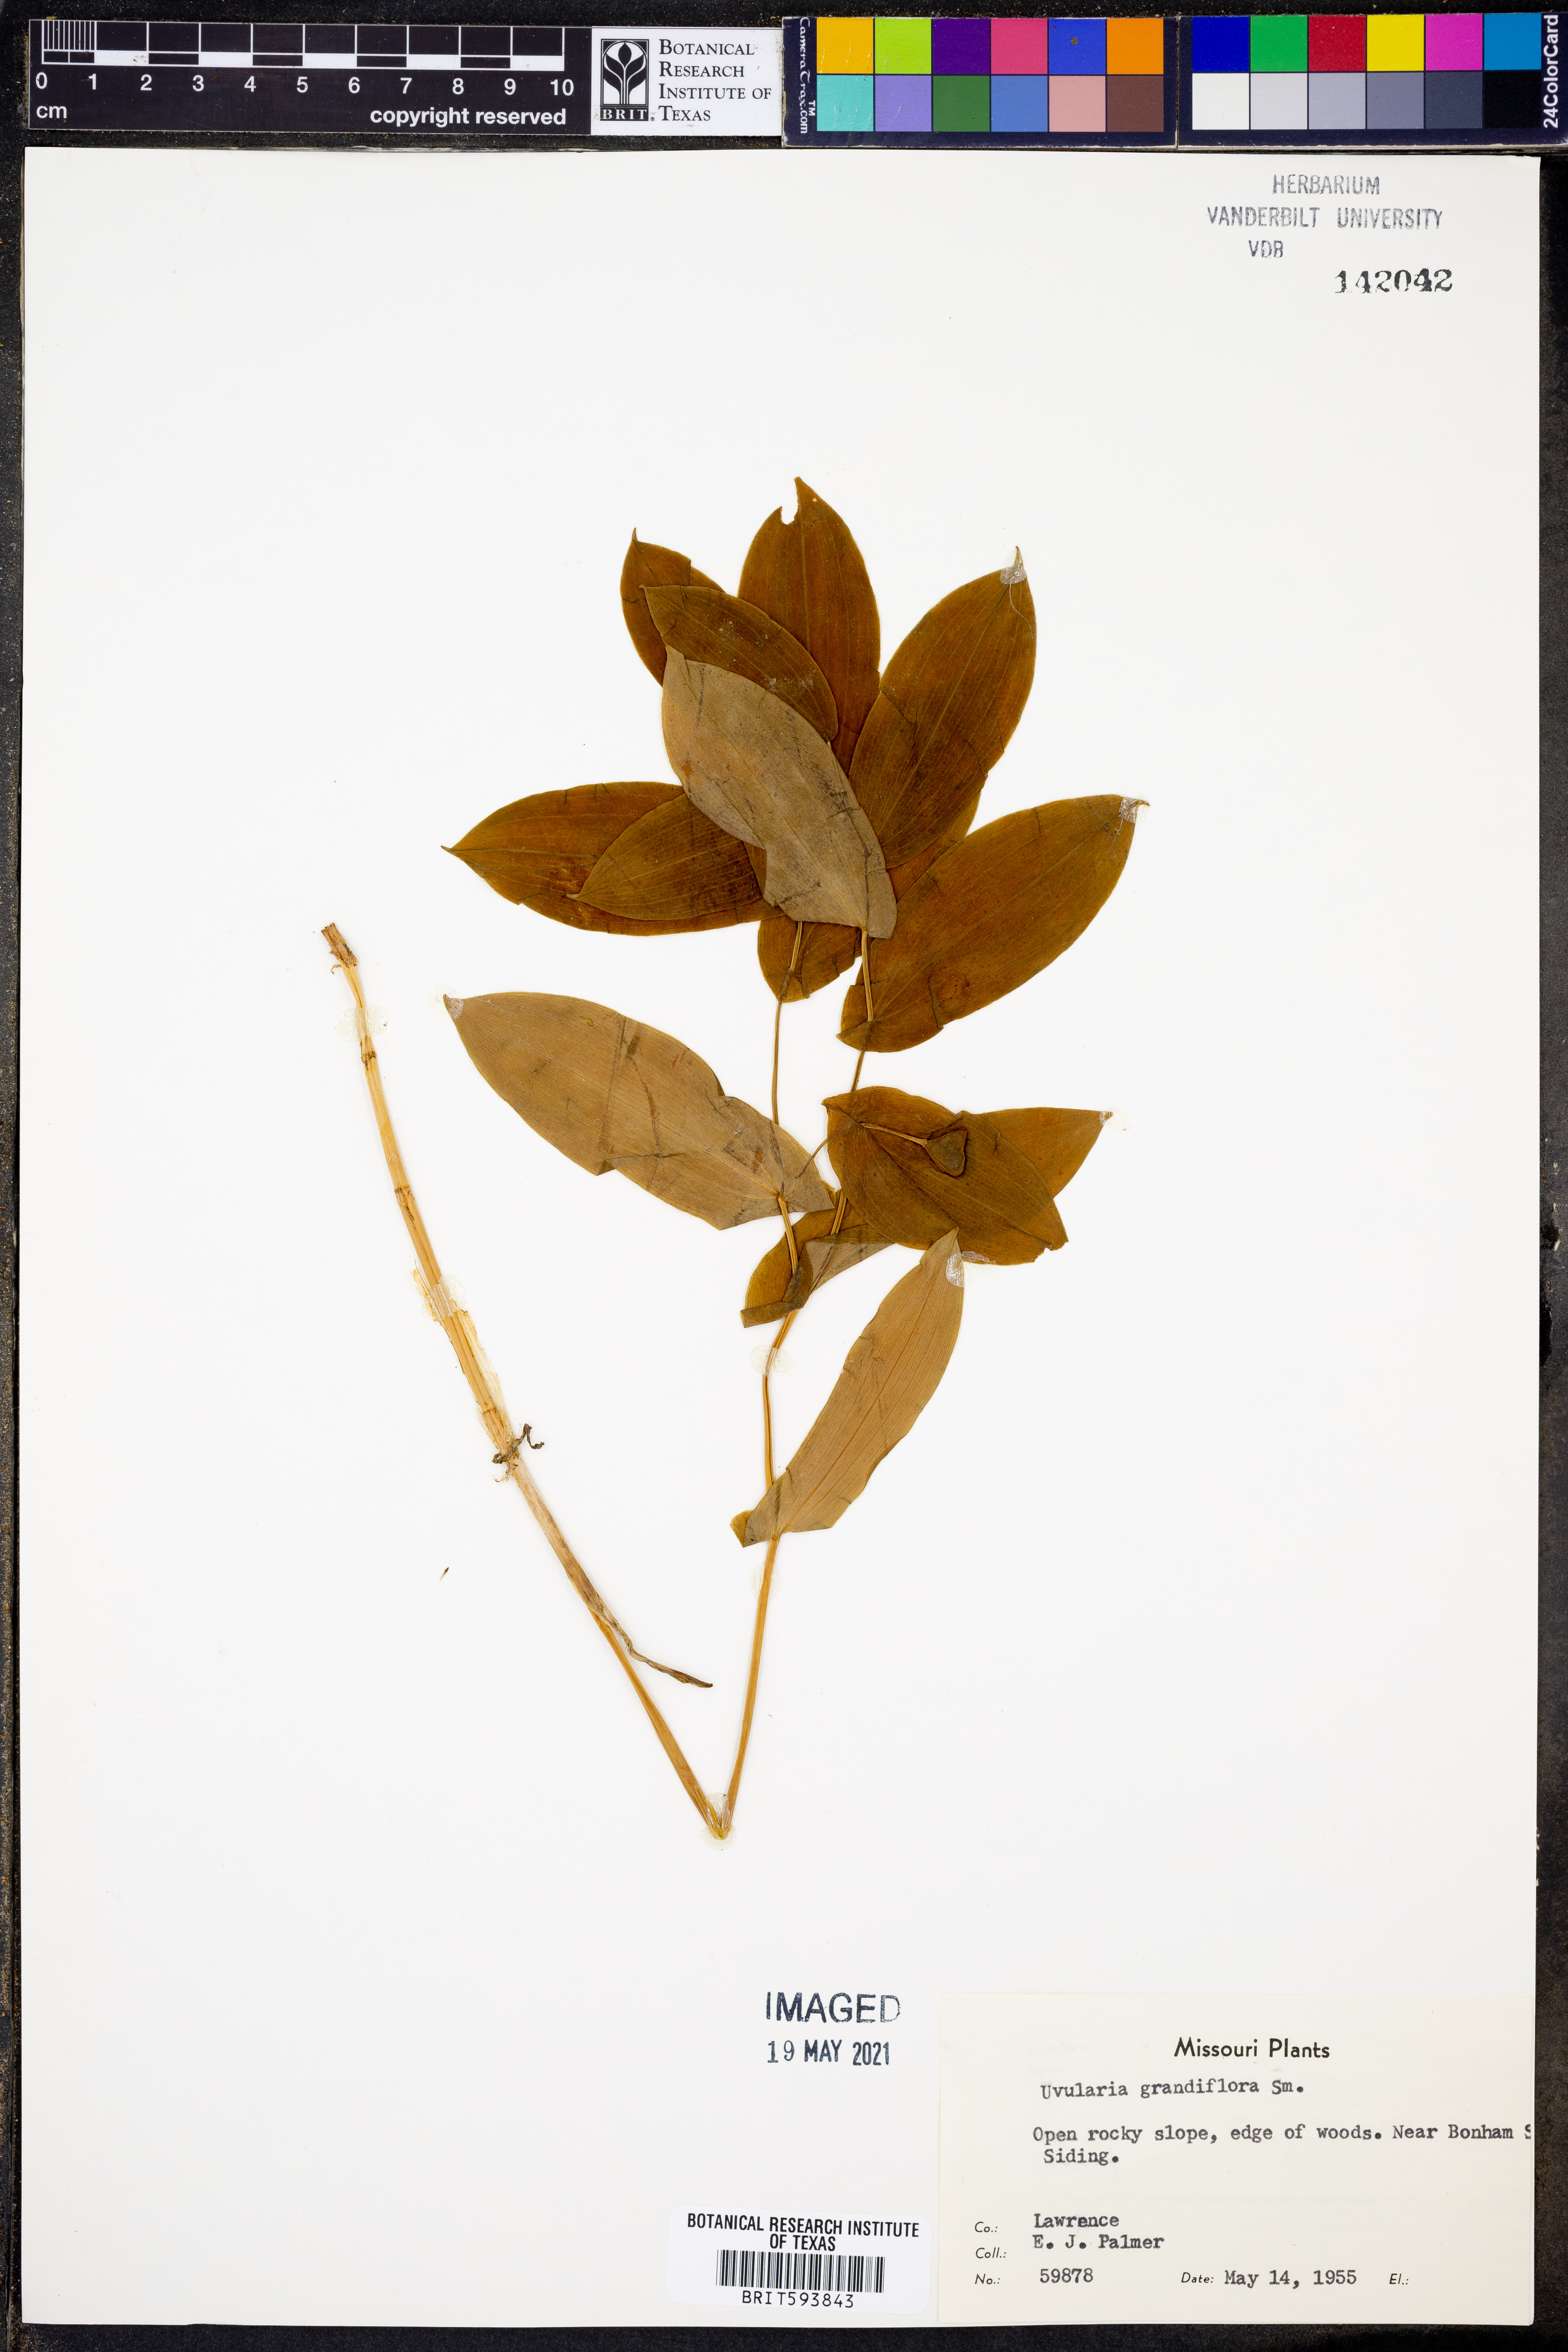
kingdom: Plantae
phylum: Tracheophyta
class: Liliopsida
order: Liliales
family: Colchicaceae
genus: Uvularia
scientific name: Uvularia grandiflora
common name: Bellwort
